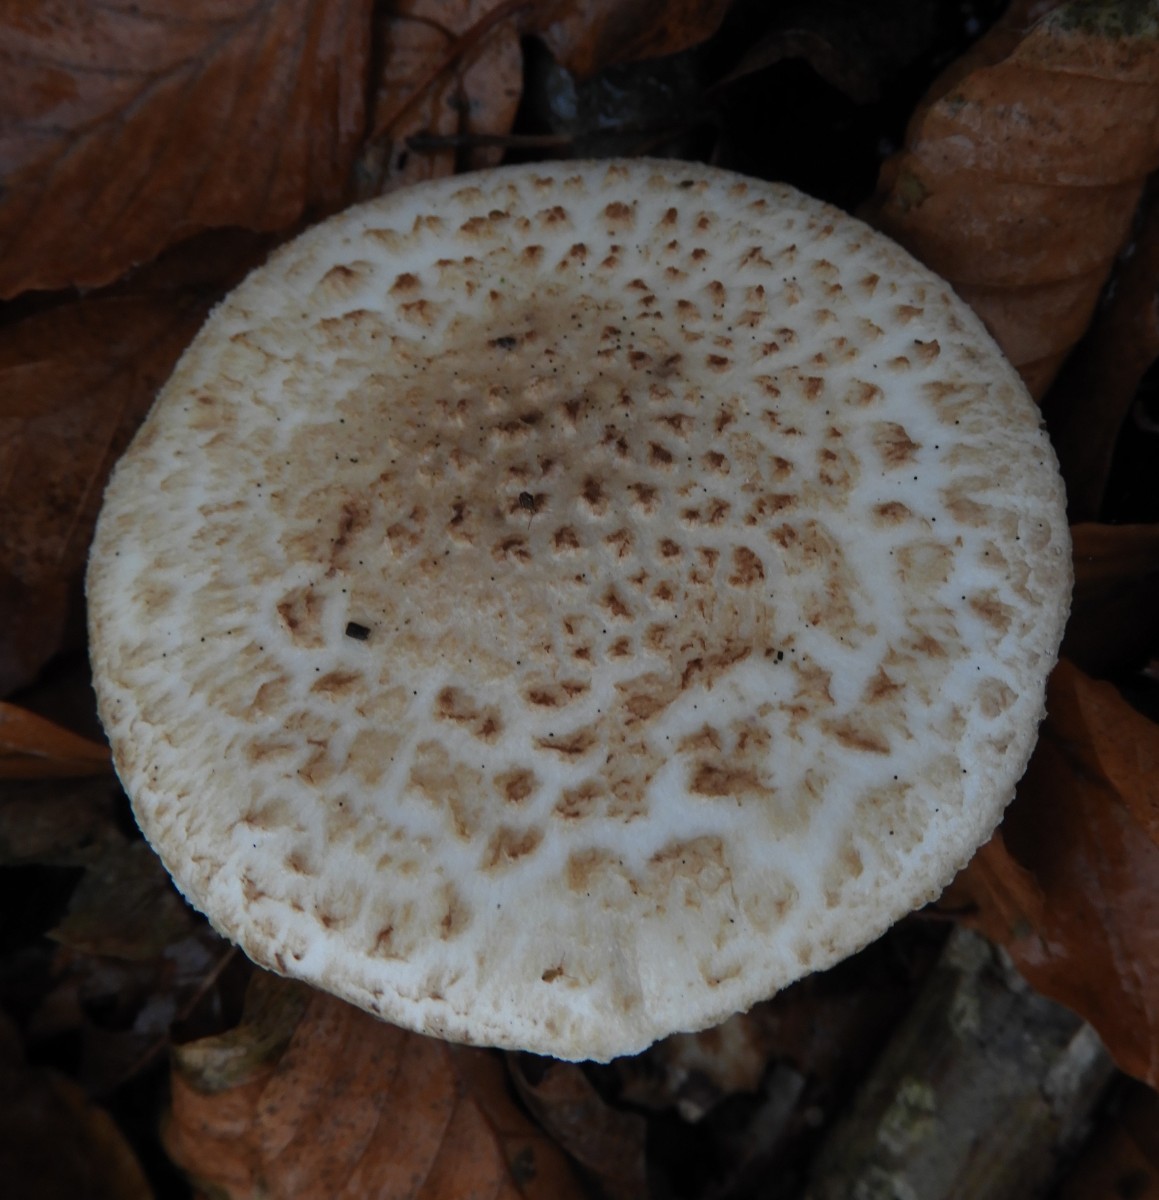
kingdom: Fungi
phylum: Basidiomycota
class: Agaricomycetes
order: Agaricales
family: Amanitaceae
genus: Amanita
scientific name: Amanita citrina
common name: False death-cap
